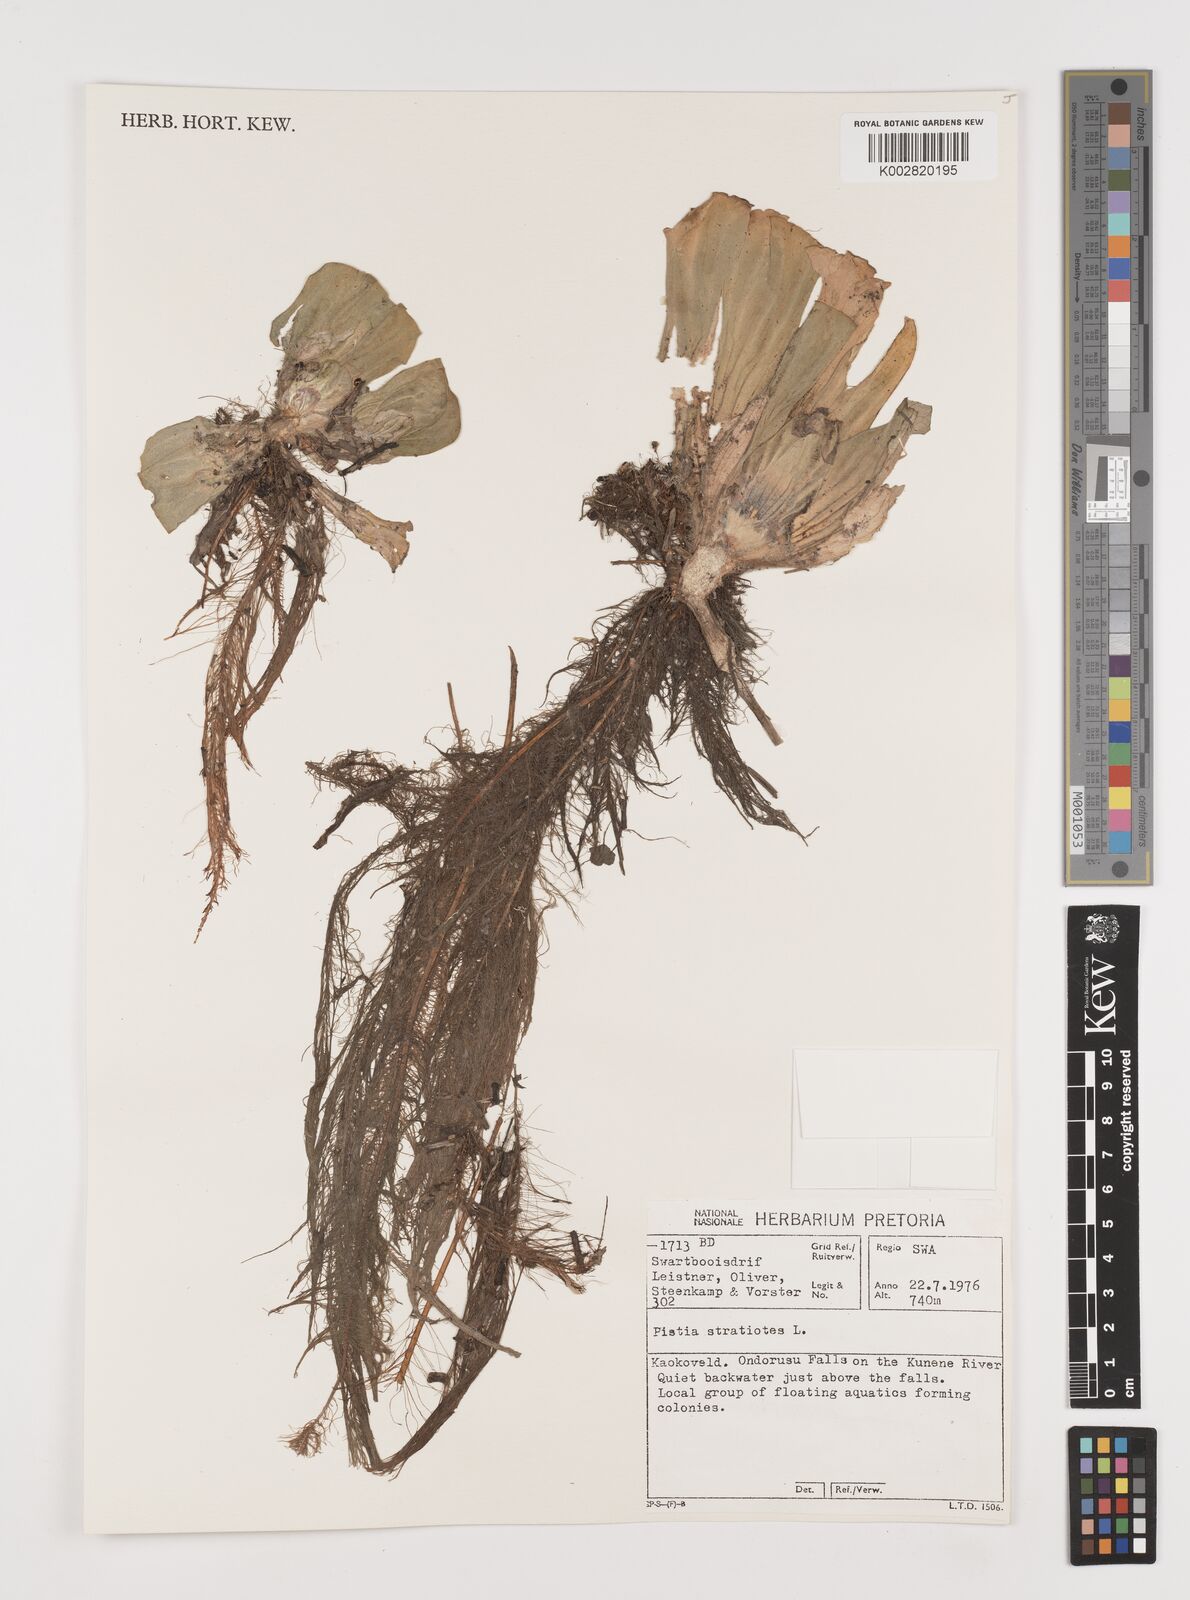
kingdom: Plantae
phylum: Tracheophyta
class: Liliopsida
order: Alismatales
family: Araceae
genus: Pistia
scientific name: Pistia stratiotes
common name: Water lettuce
